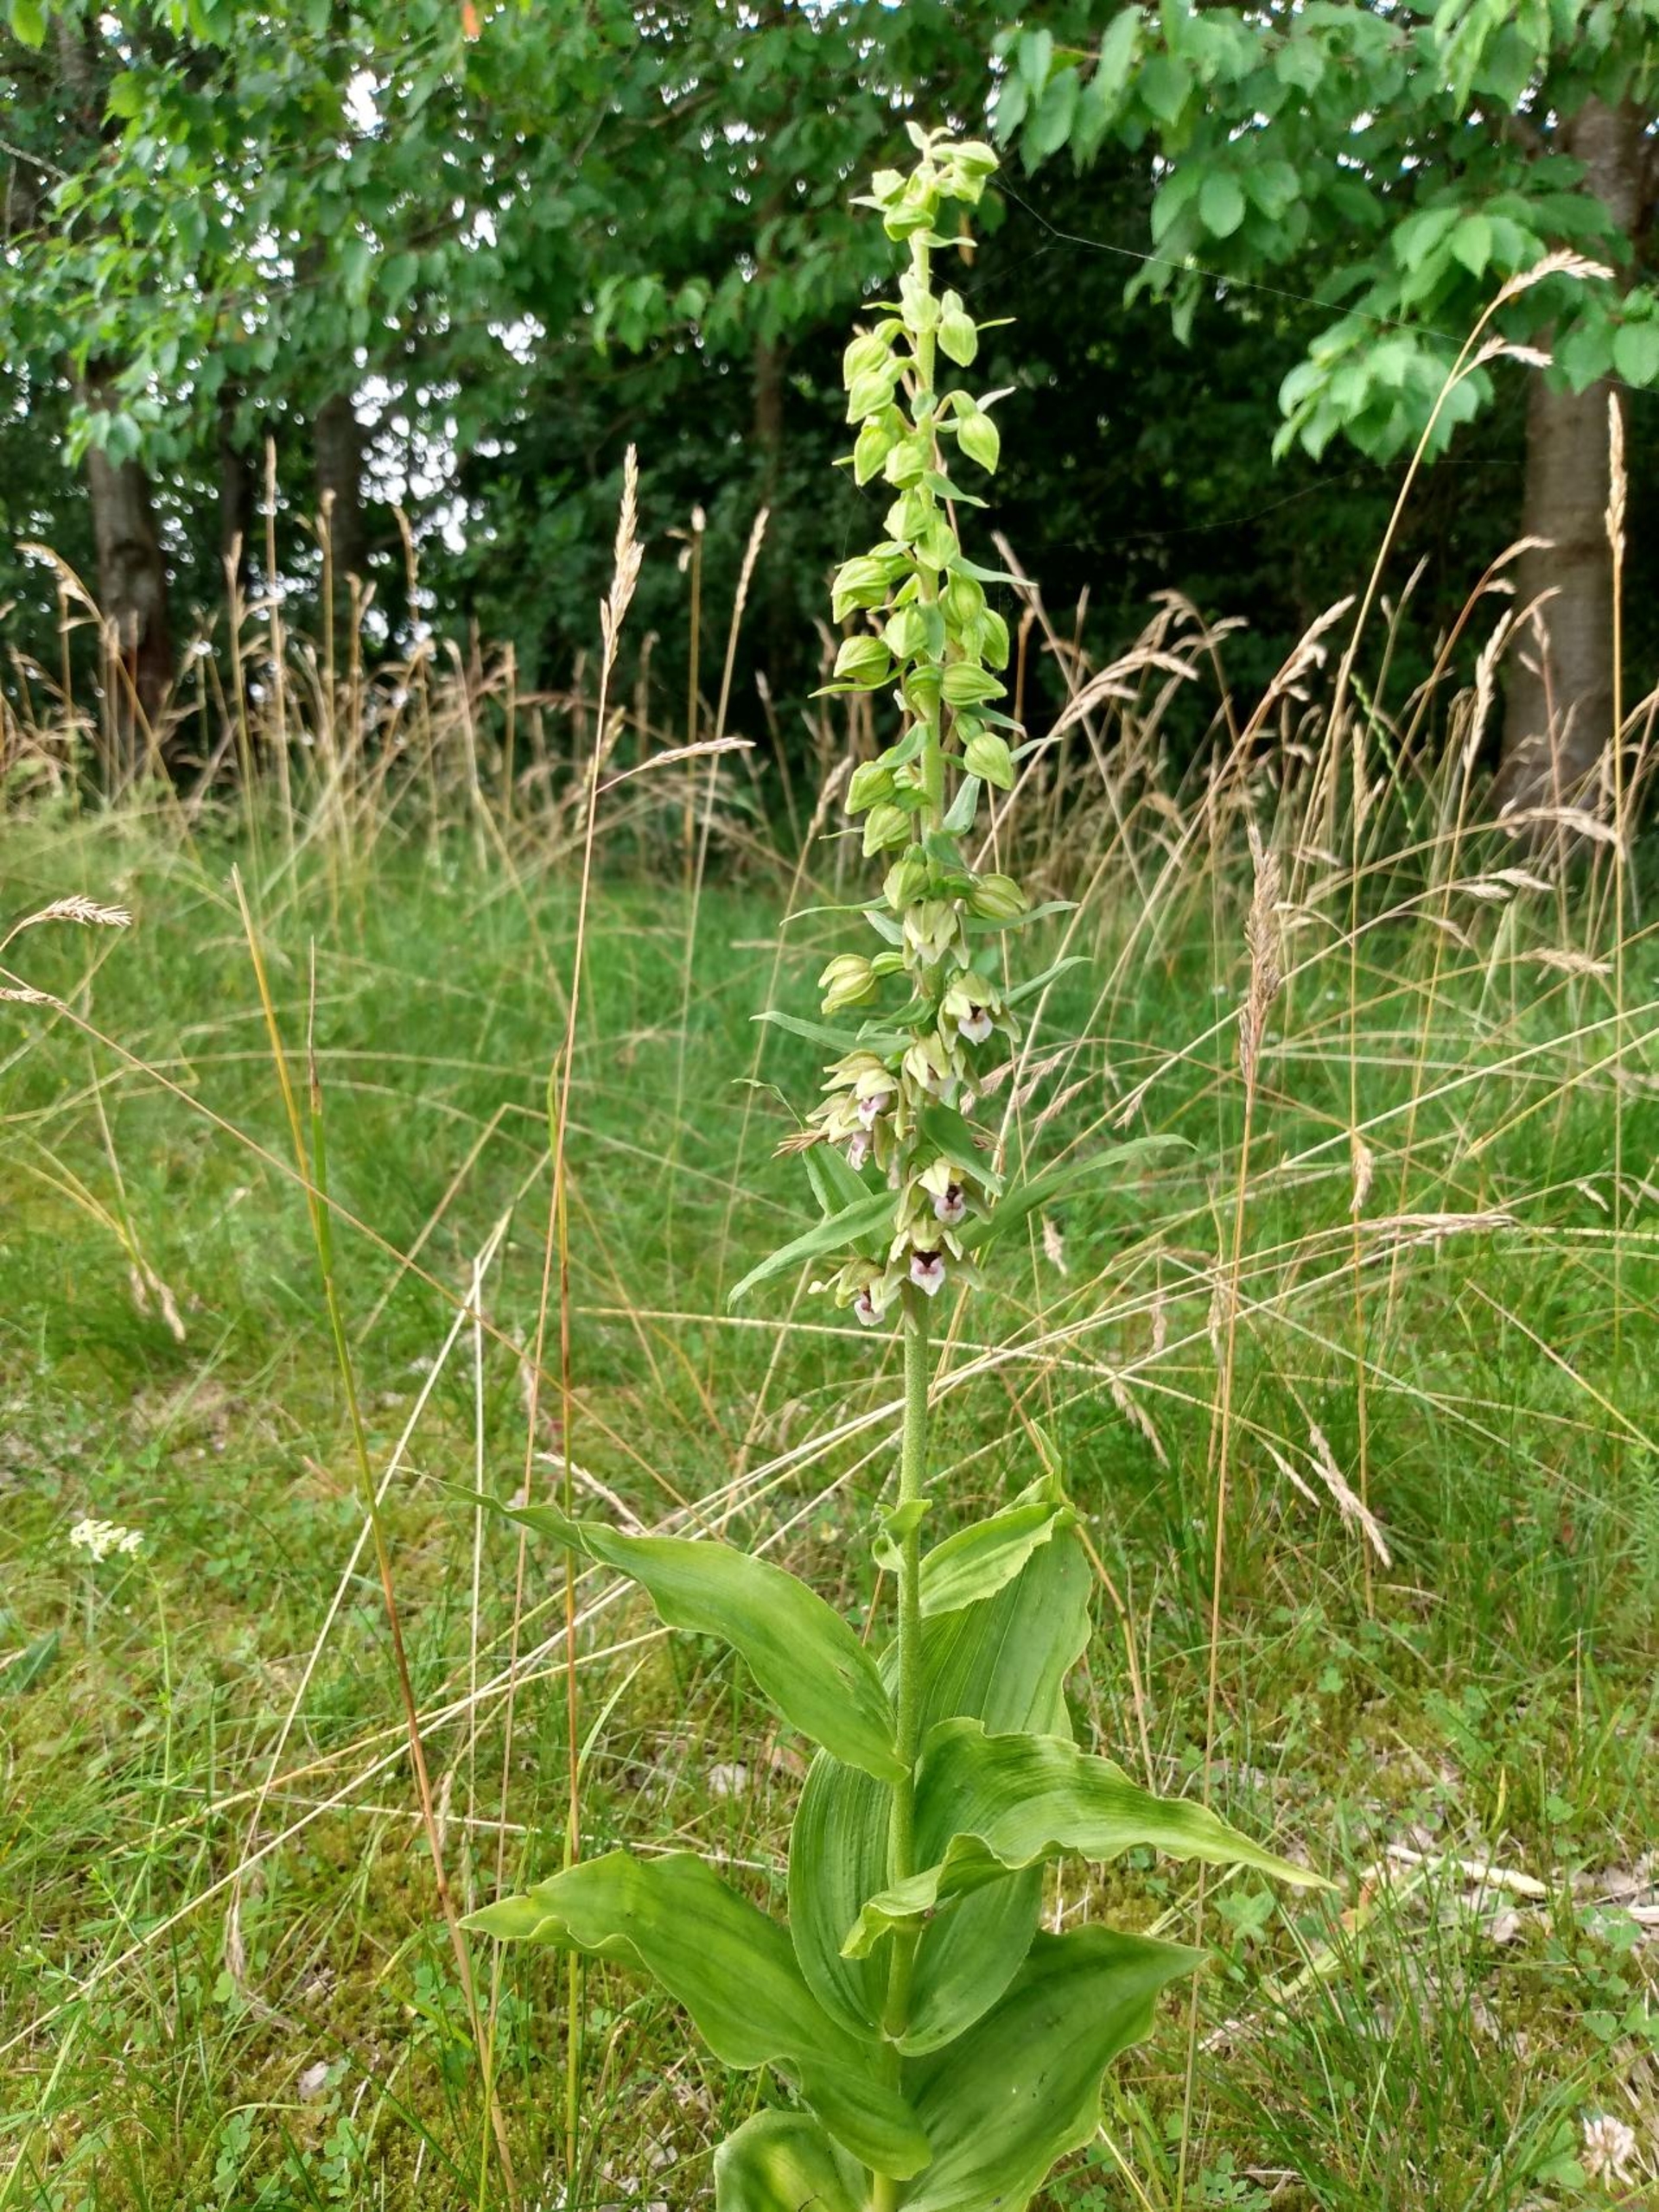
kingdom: Plantae
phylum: Tracheophyta
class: Liliopsida
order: Asparagales
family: Orchidaceae
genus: Epipactis
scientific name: Epipactis helleborine
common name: Skov-hullæbe
